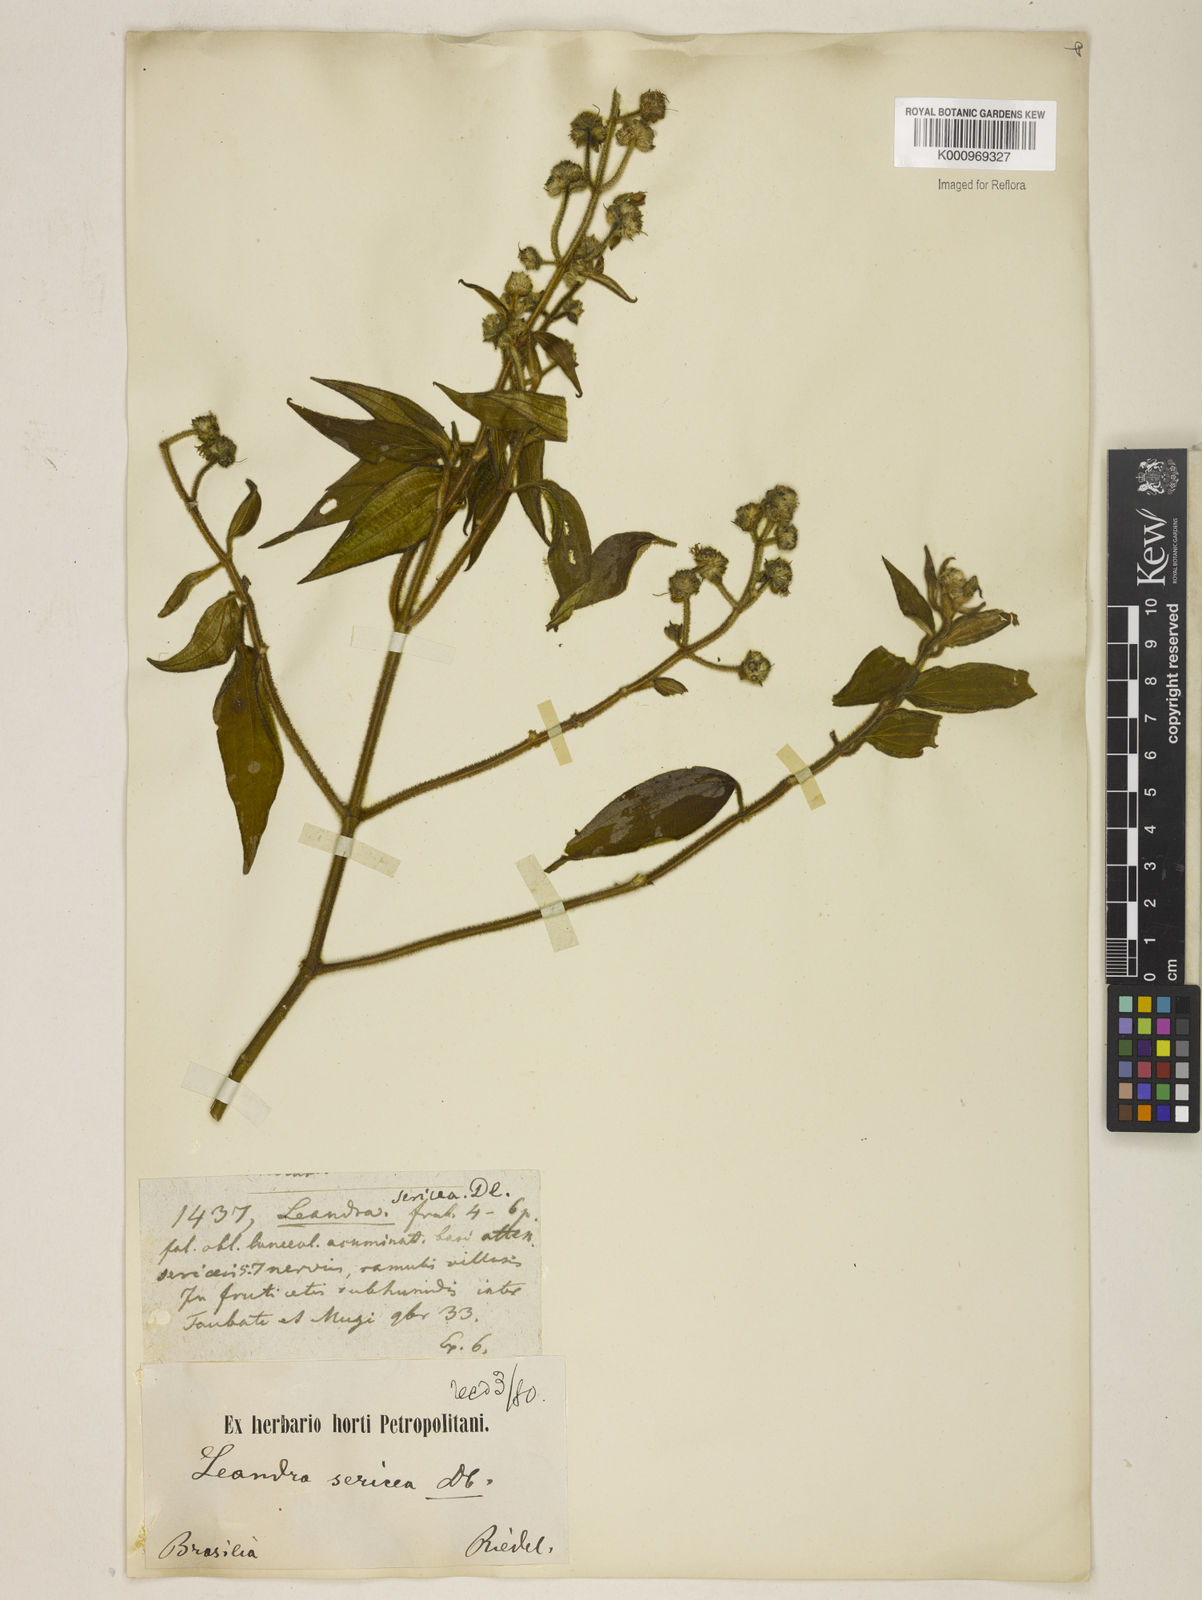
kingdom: Plantae
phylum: Tracheophyta
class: Magnoliopsida
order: Myrtales
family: Melastomataceae
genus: Miconia
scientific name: Miconia raddii
